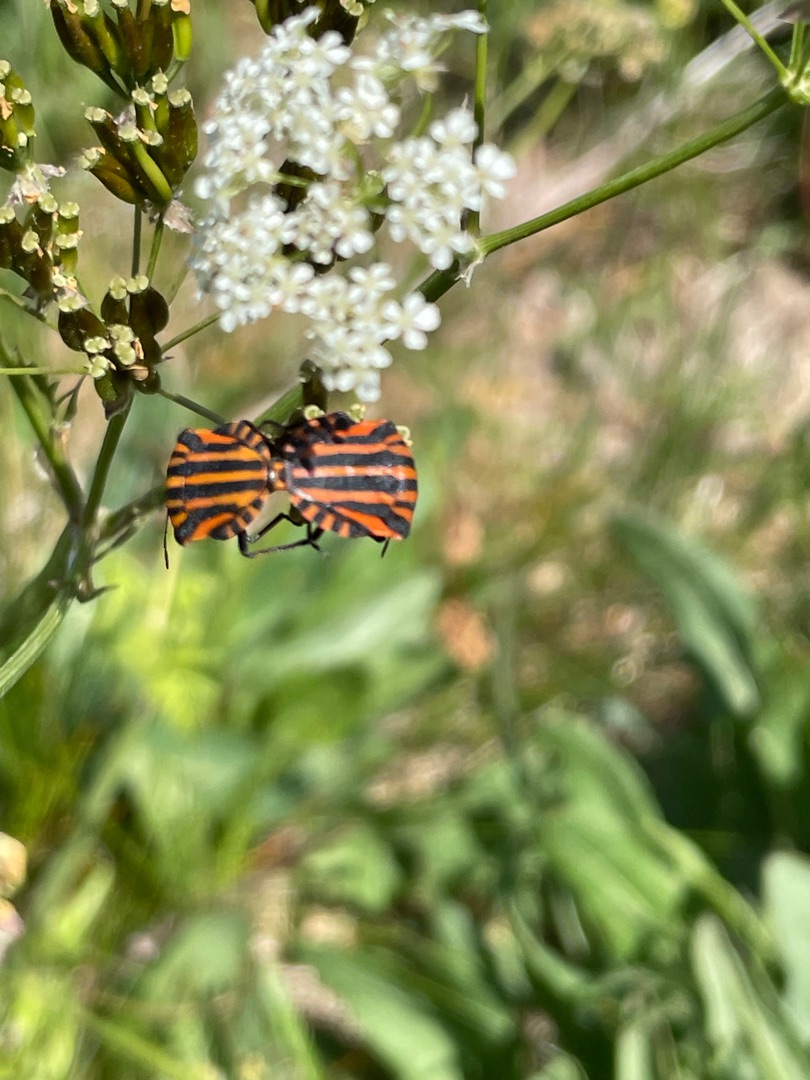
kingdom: Animalia
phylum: Arthropoda
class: Insecta
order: Hemiptera
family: Pentatomidae
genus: Graphosoma
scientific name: Graphosoma italicum
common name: Stribetæge
